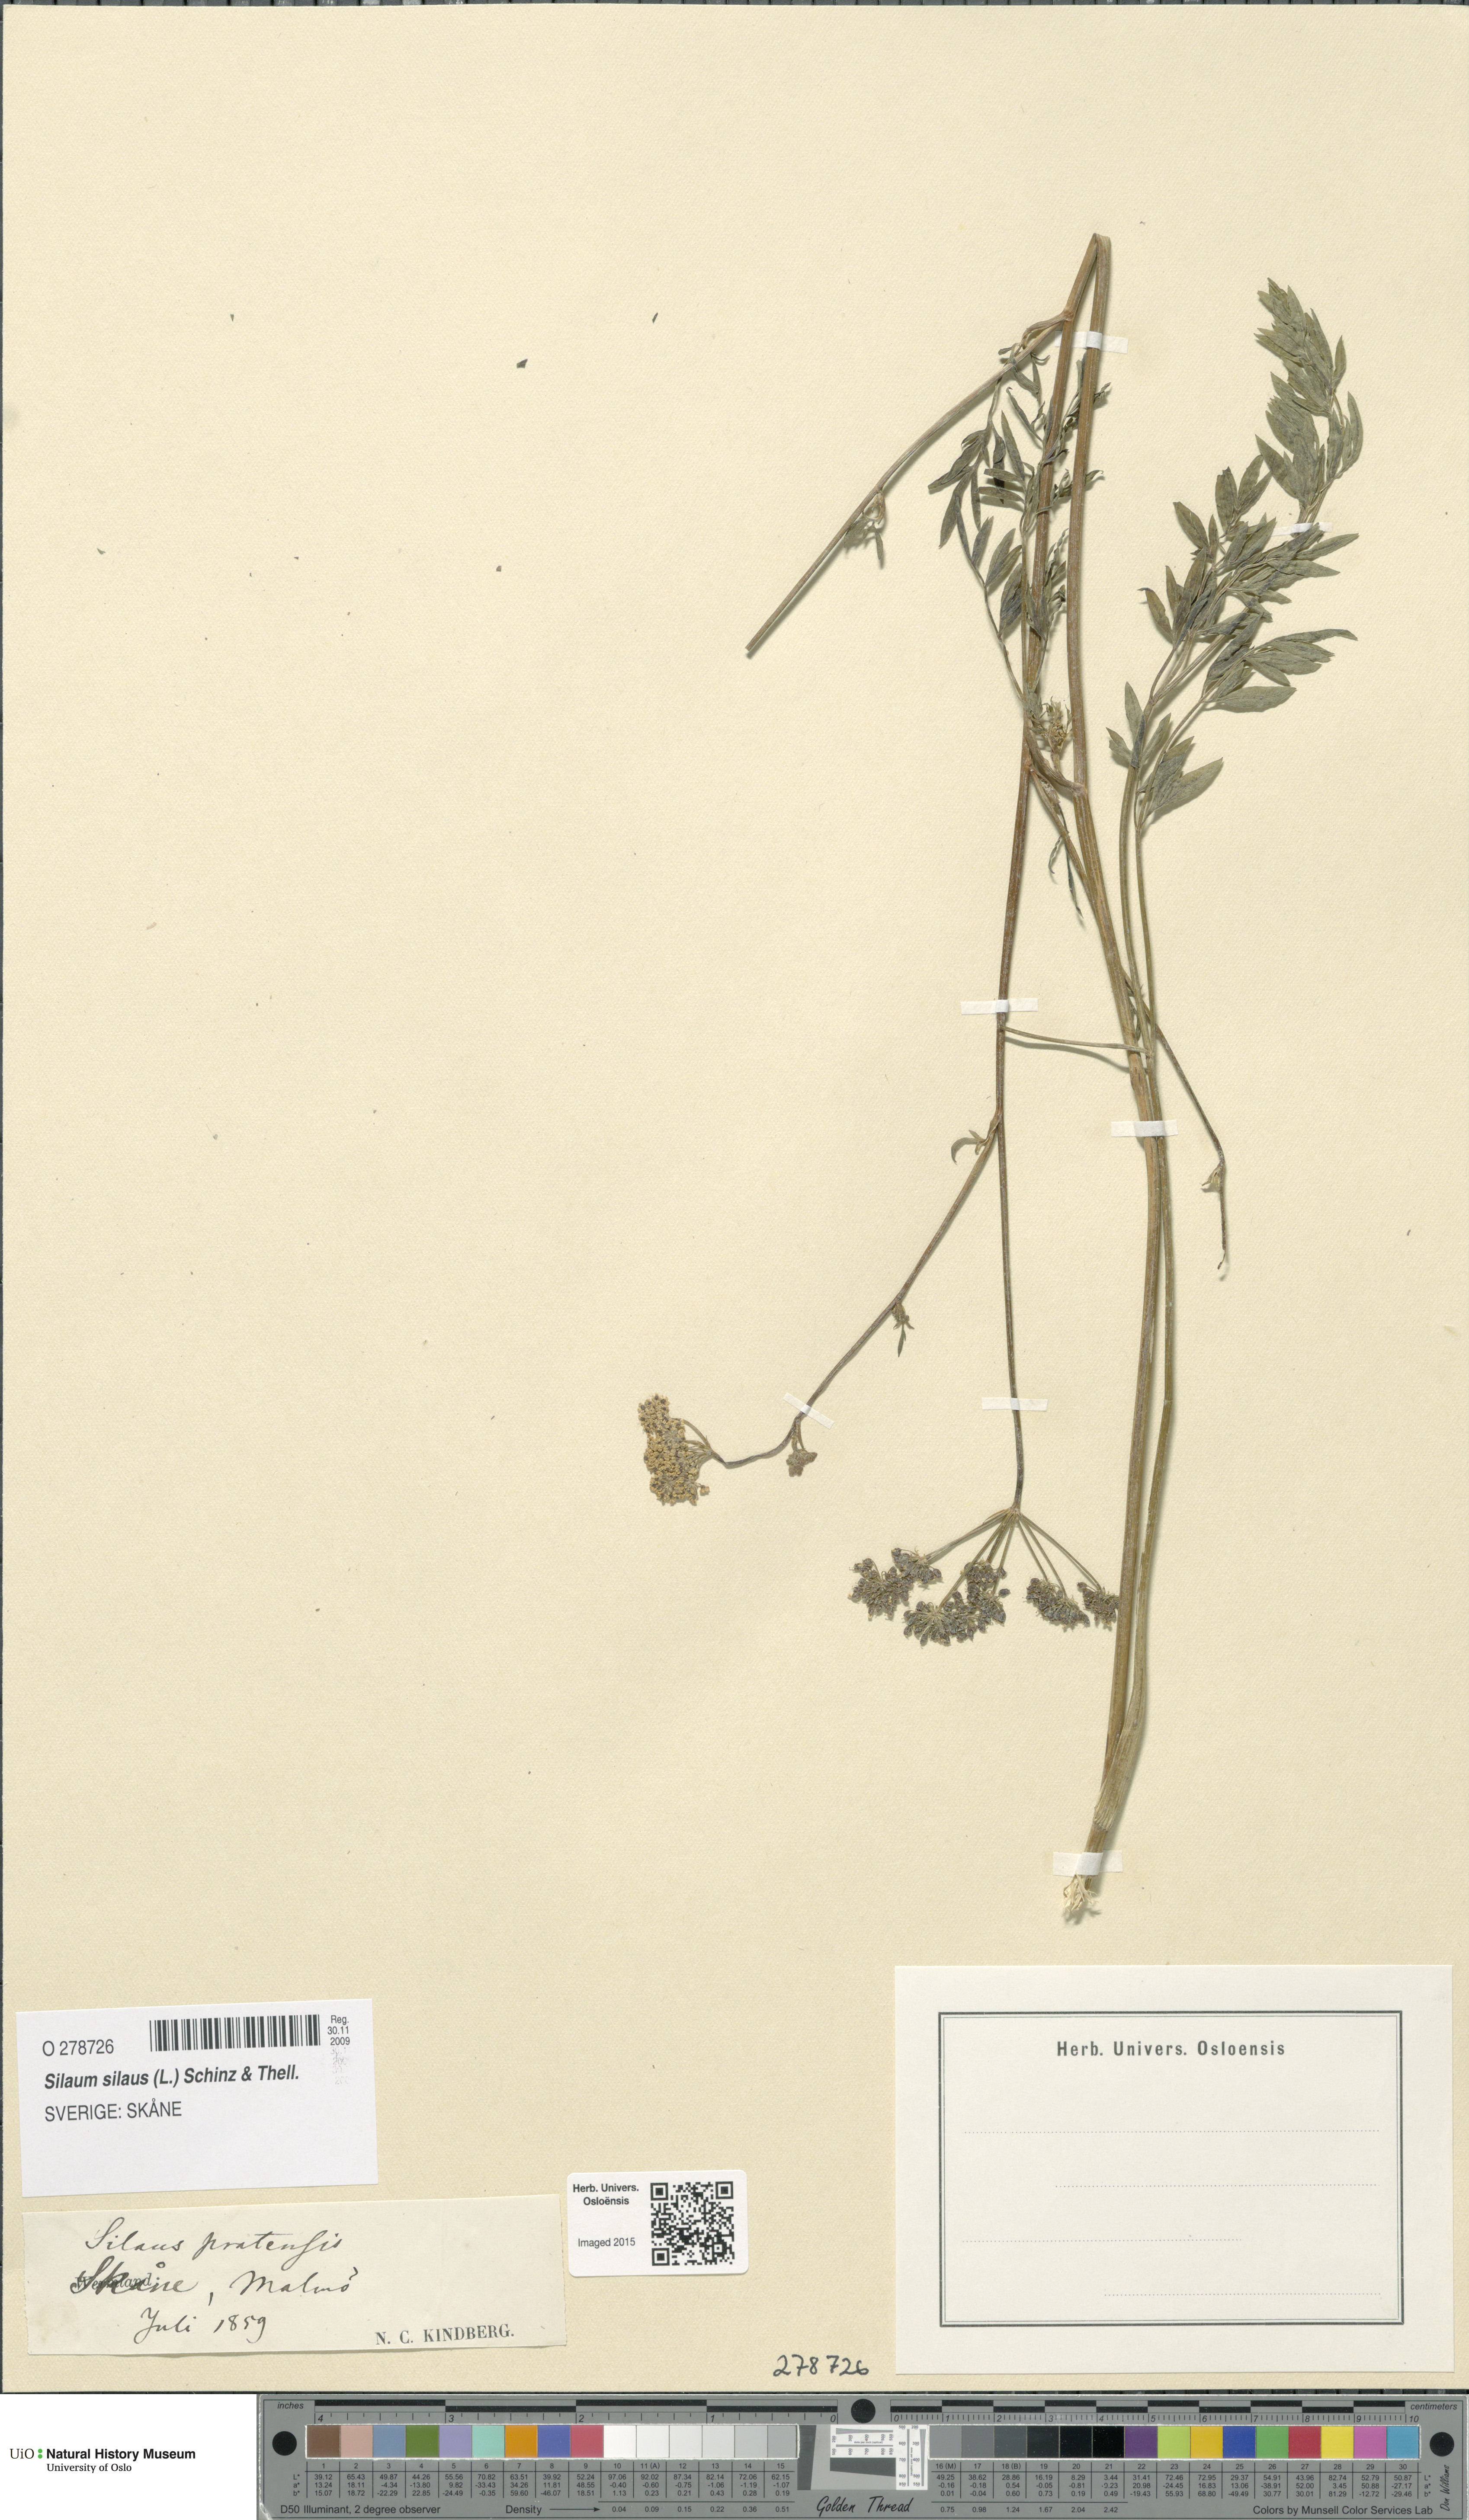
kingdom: Plantae
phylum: Tracheophyta
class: Magnoliopsida
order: Apiales
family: Apiaceae
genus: Silaum
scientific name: Silaum silaus
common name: Pepper-saxifrage
